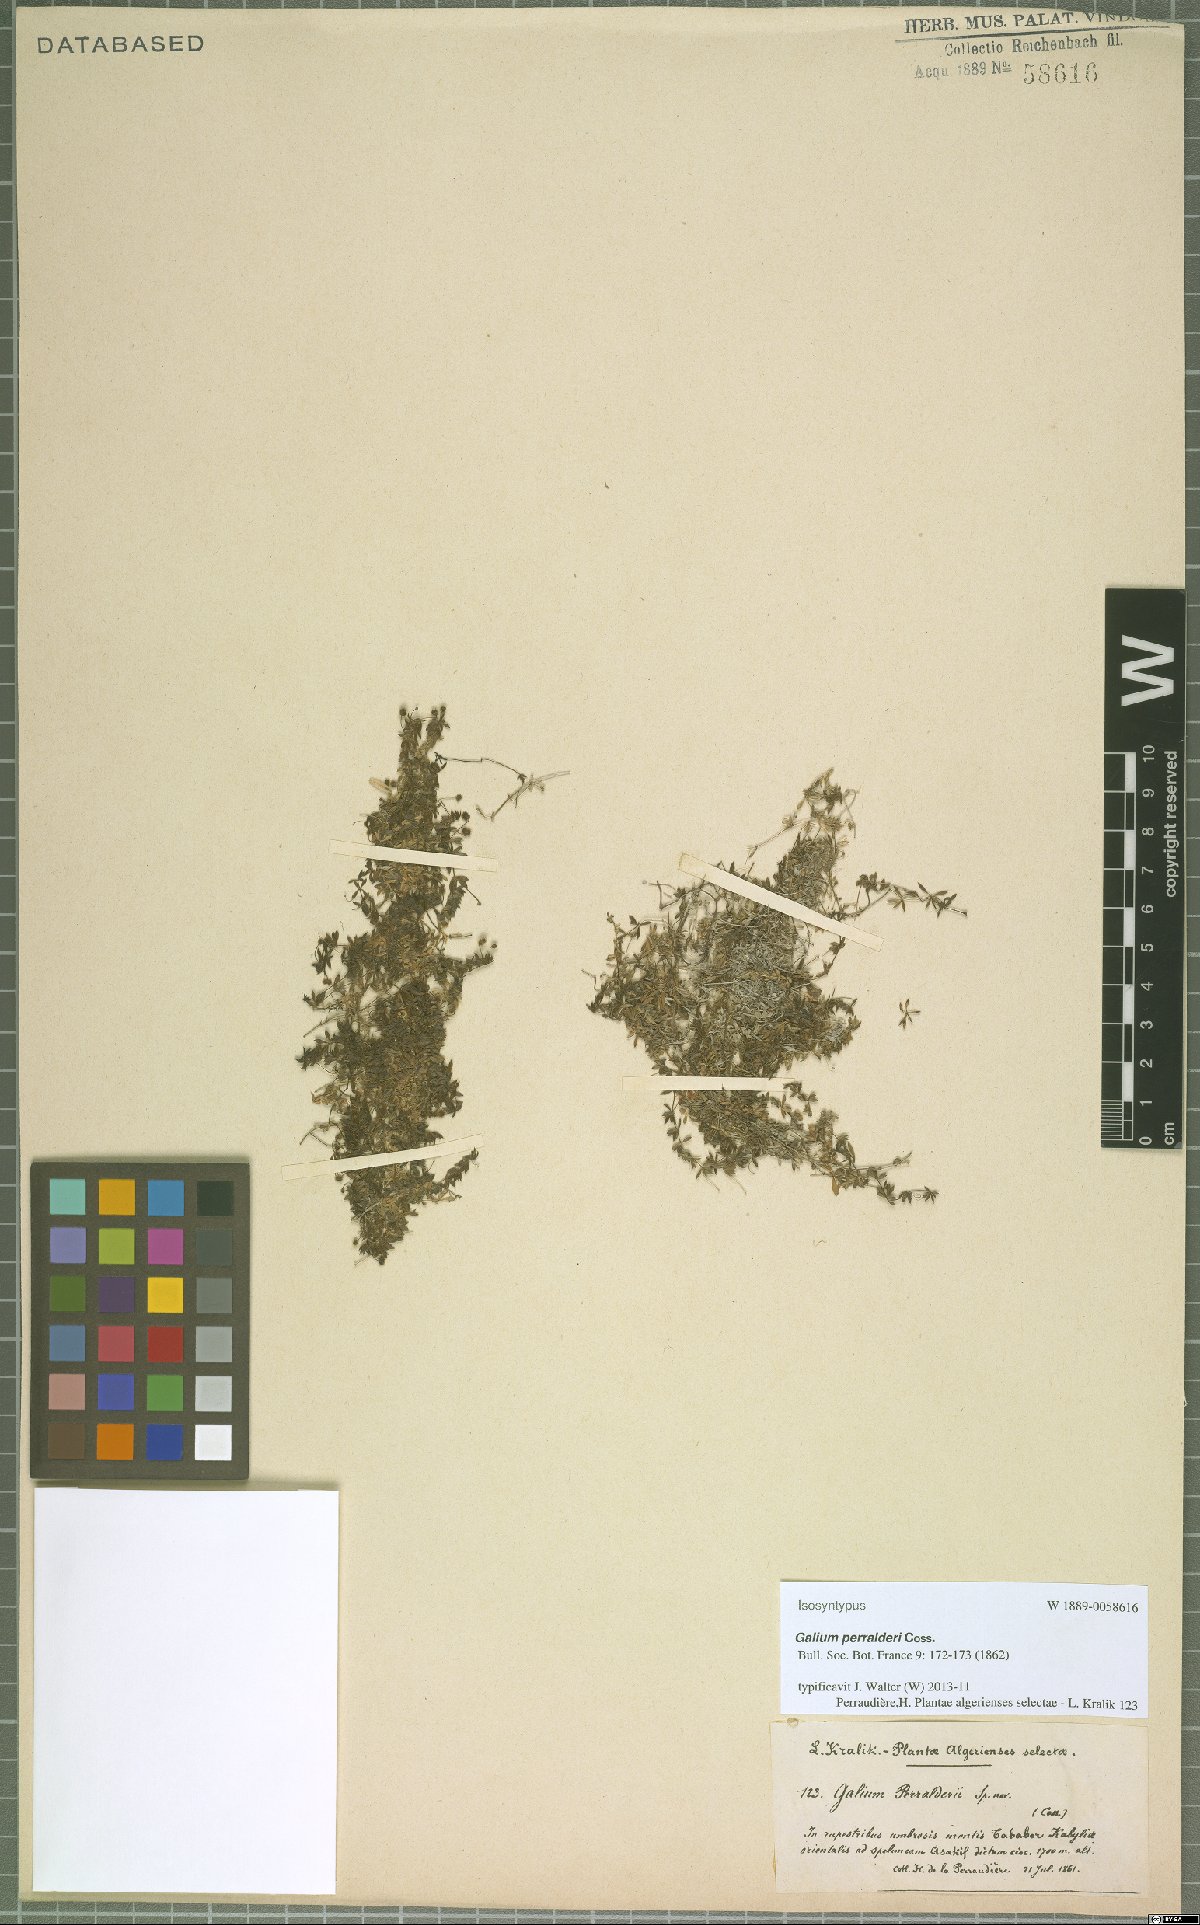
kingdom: Plantae
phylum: Tracheophyta
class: Magnoliopsida
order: Gentianales
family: Rubiaceae
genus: Galium
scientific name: Galium perralderii
